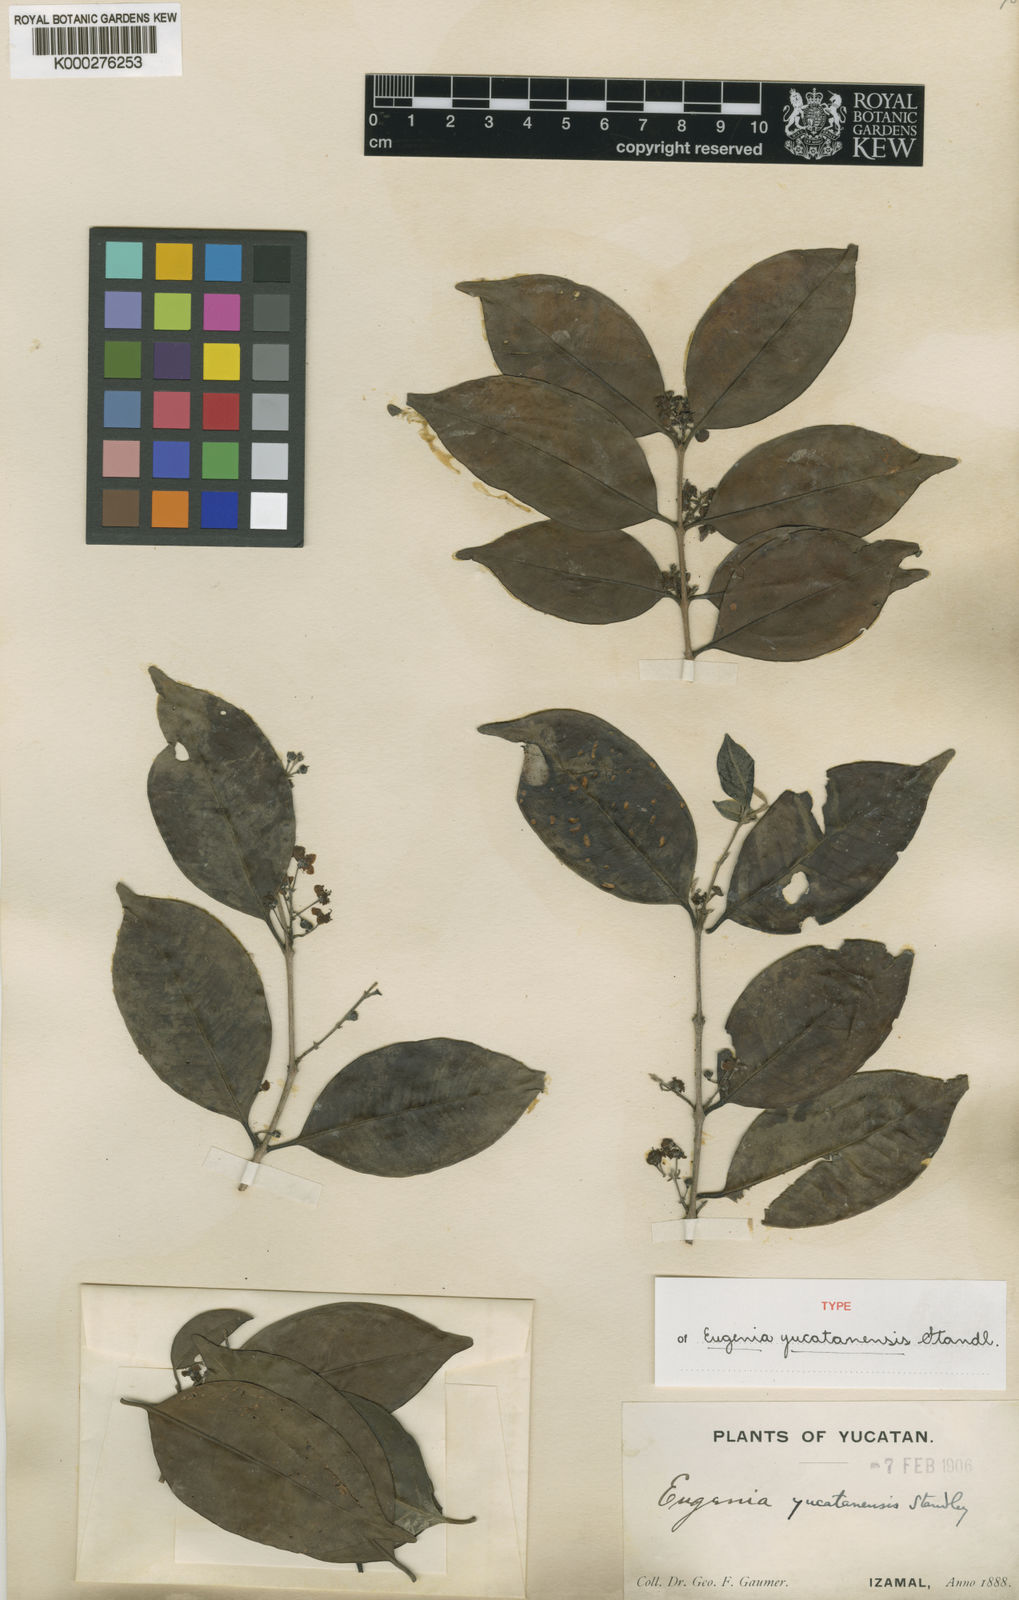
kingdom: Plantae
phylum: Tracheophyta
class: Magnoliopsida
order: Myrtales
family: Myrtaceae
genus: Eugenia
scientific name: Eugenia karwinskyana
